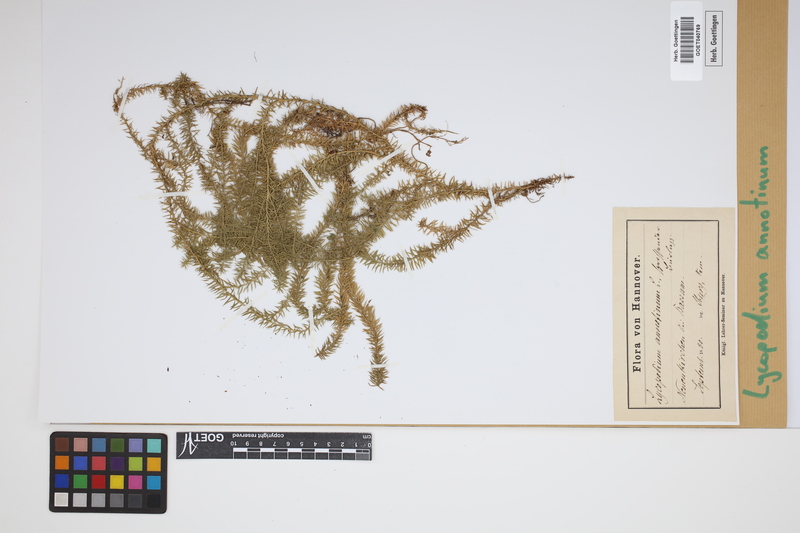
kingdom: Plantae
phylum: Tracheophyta
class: Lycopodiopsida
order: Lycopodiales
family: Lycopodiaceae
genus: Spinulum
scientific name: Spinulum annotinum
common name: Interrupted club-moss
